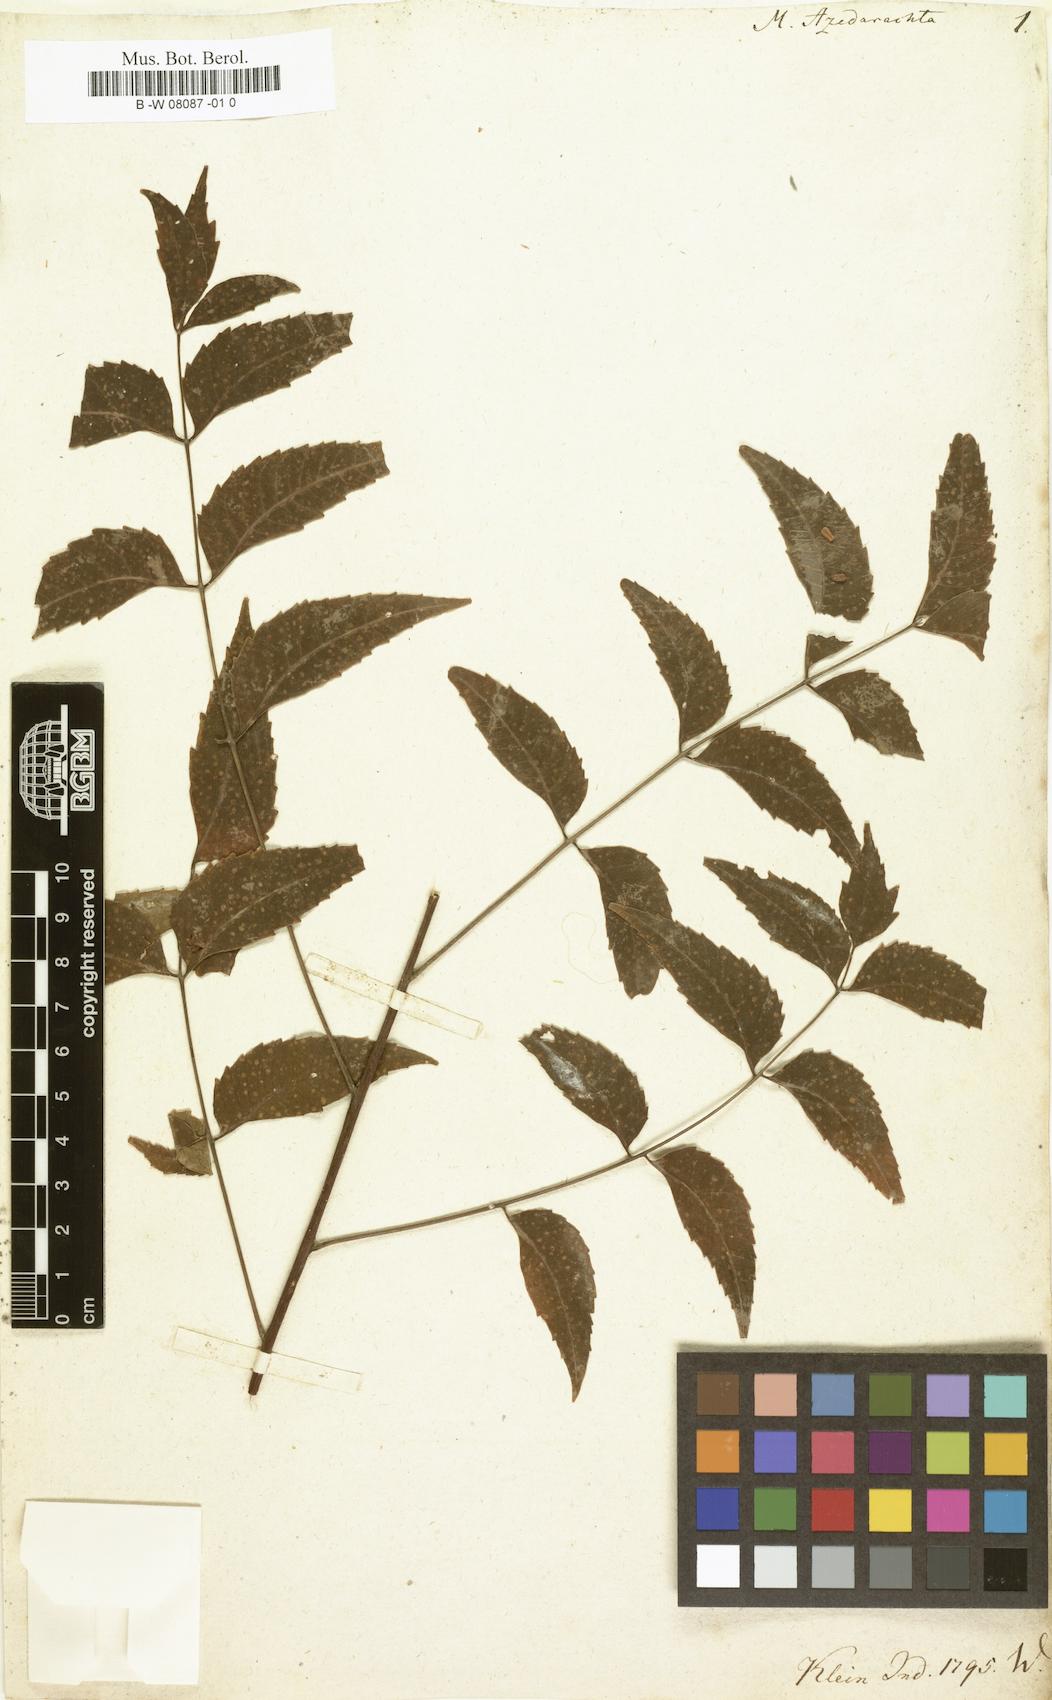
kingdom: Plantae
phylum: Tracheophyta
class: Magnoliopsida
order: Sapindales
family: Meliaceae
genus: Melia
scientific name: Melia azedarach
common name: Chinaberrytree
